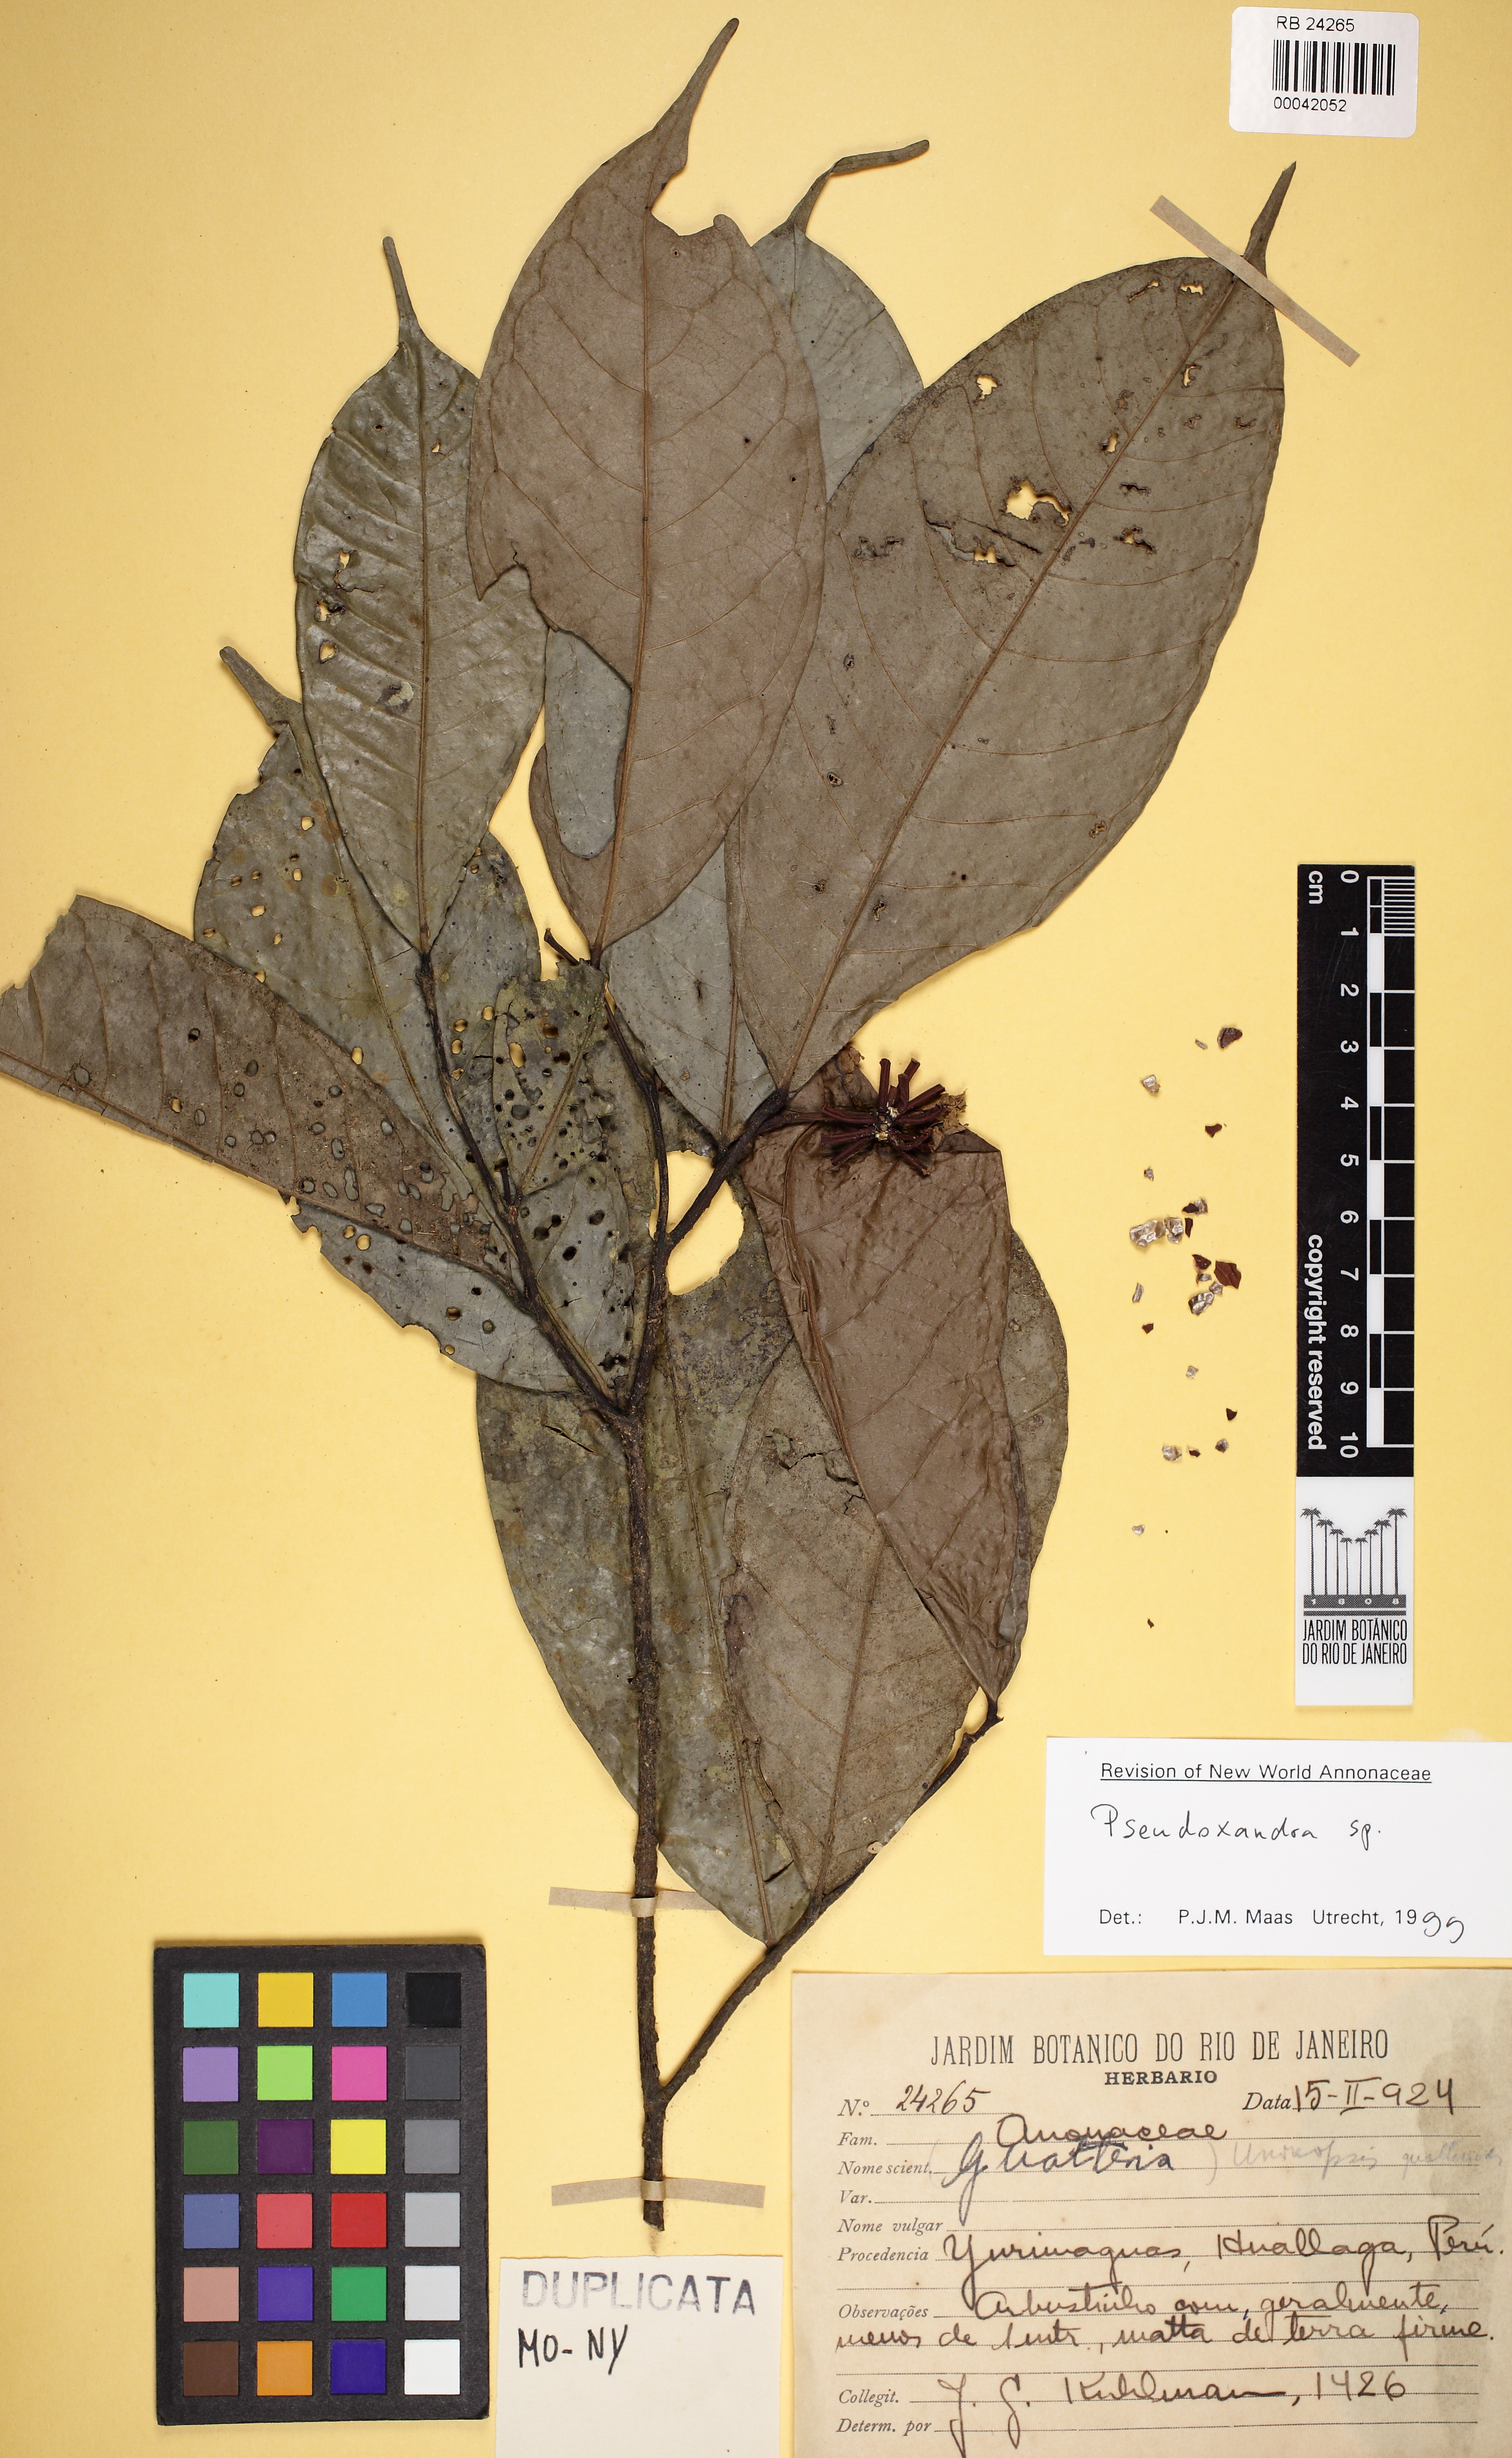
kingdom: Plantae
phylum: Tracheophyta
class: Magnoliopsida
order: Magnoliales
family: Annonaceae
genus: Cremastosperma
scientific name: Cremastosperma pedunculatum
